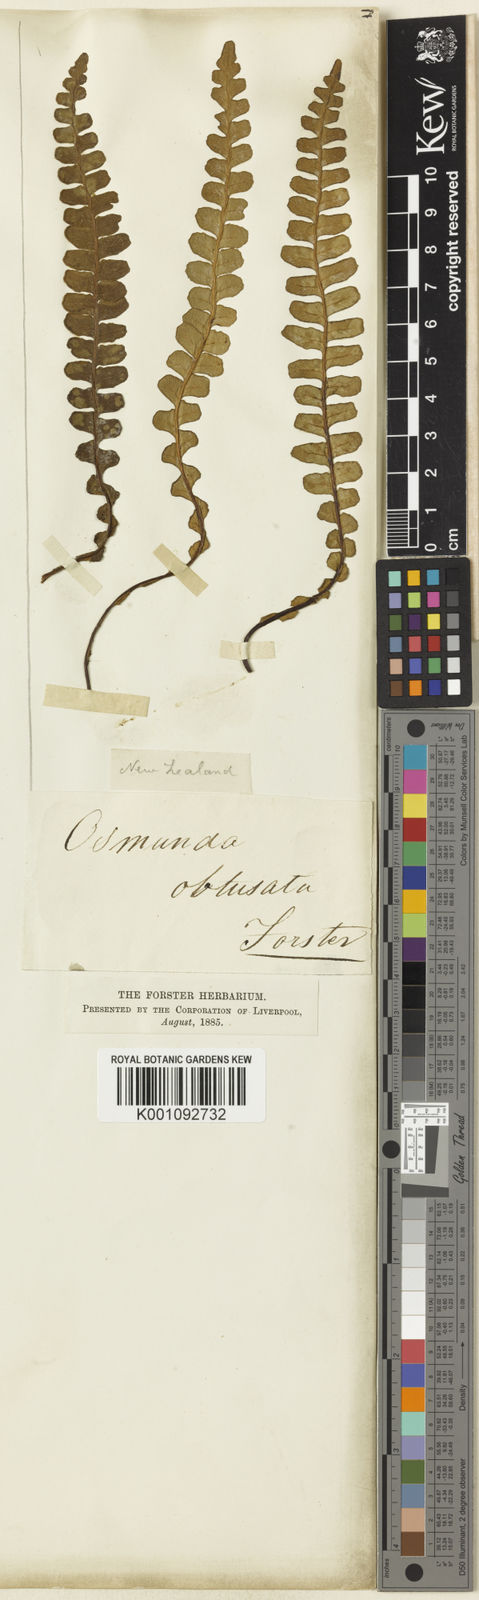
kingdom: Plantae
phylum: Tracheophyta
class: Polypodiopsida
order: Polypodiales
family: Blechnaceae
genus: Austroblechnum
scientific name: Austroblechnum leyboldtianum
